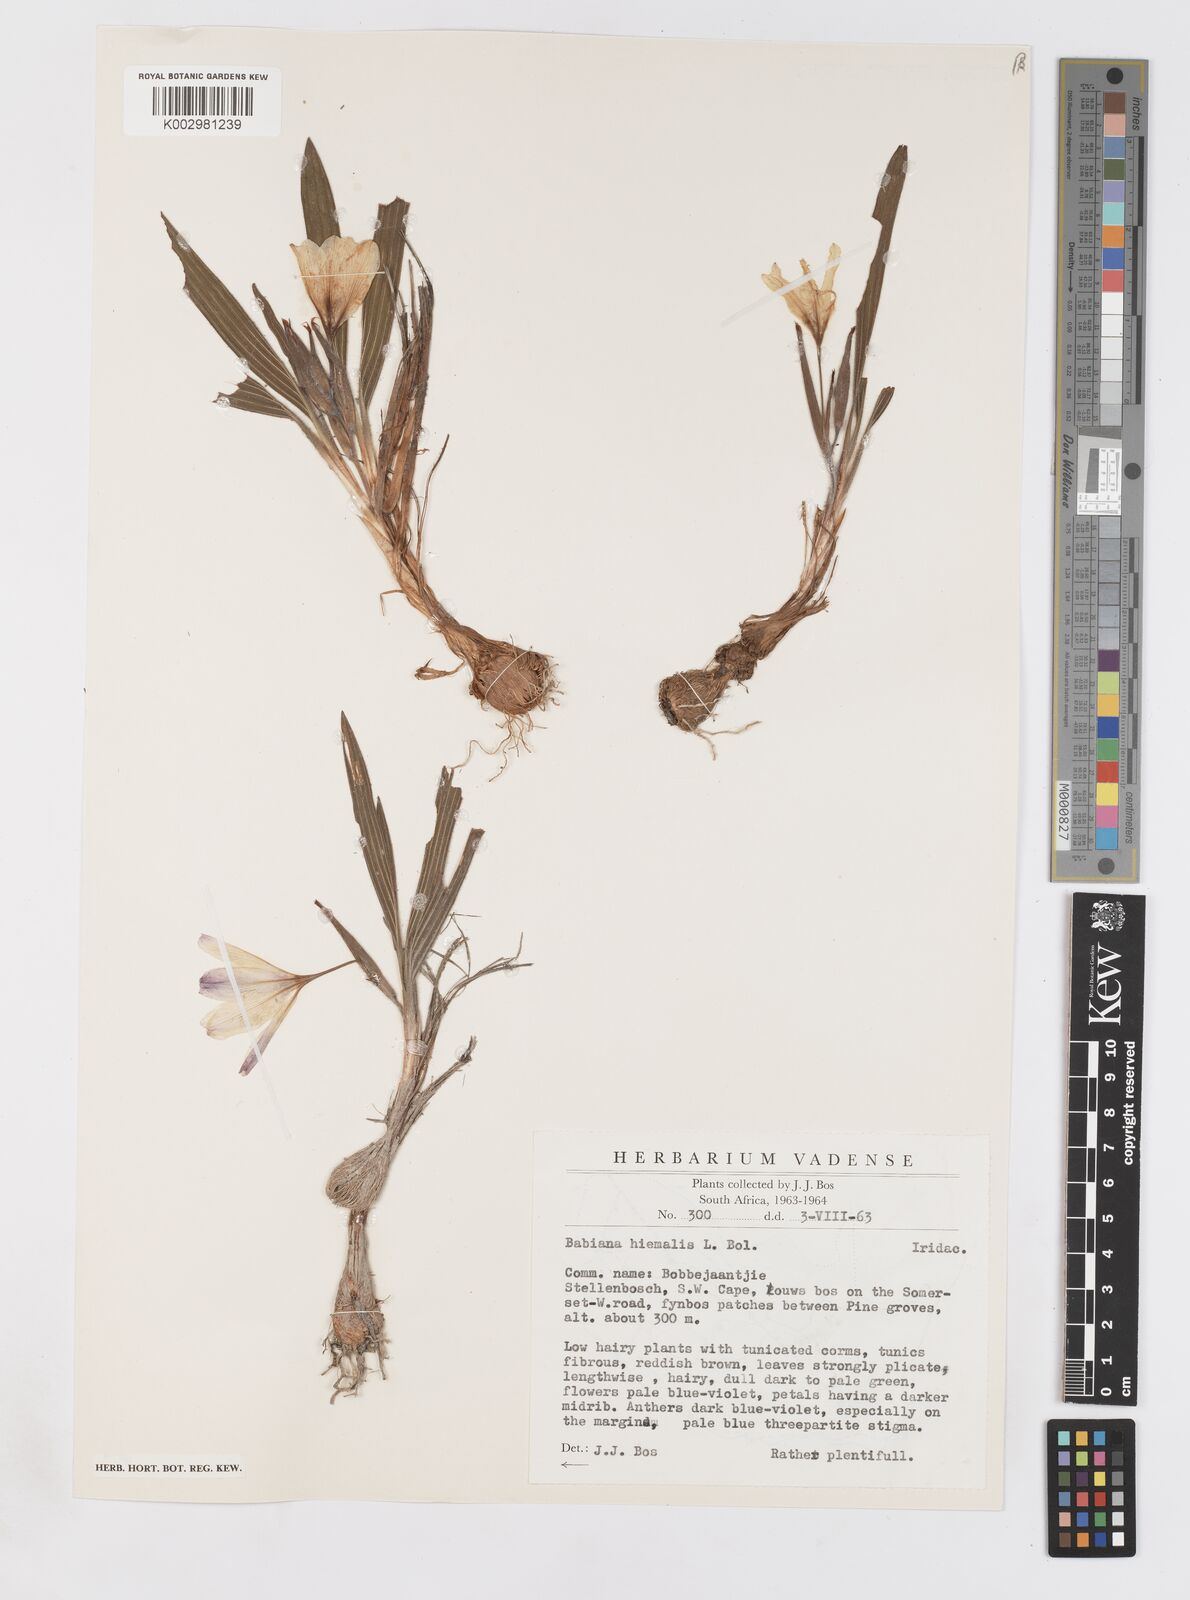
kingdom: Plantae
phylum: Tracheophyta
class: Liliopsida
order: Asparagales
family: Iridaceae
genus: Babiana
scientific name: Babiana villosula
